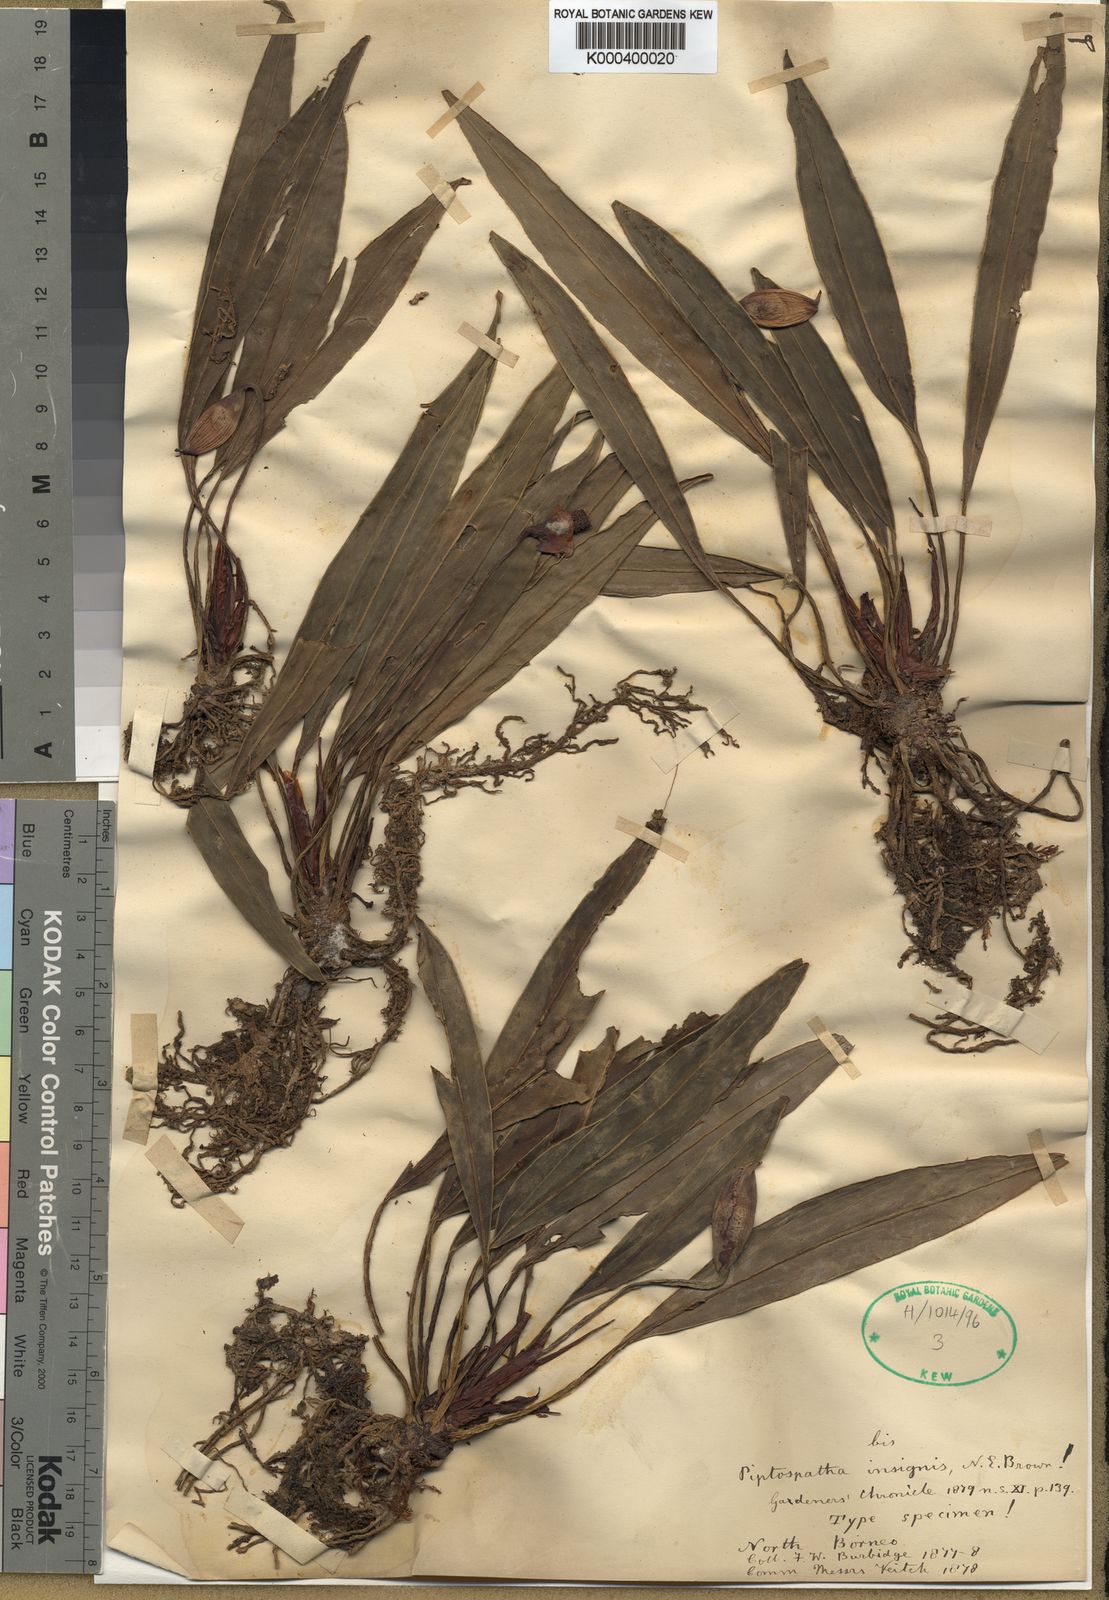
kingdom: Plantae
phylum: Tracheophyta
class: Liliopsida
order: Alismatales
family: Araceae
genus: Piptospatha
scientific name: Piptospatha insignis
